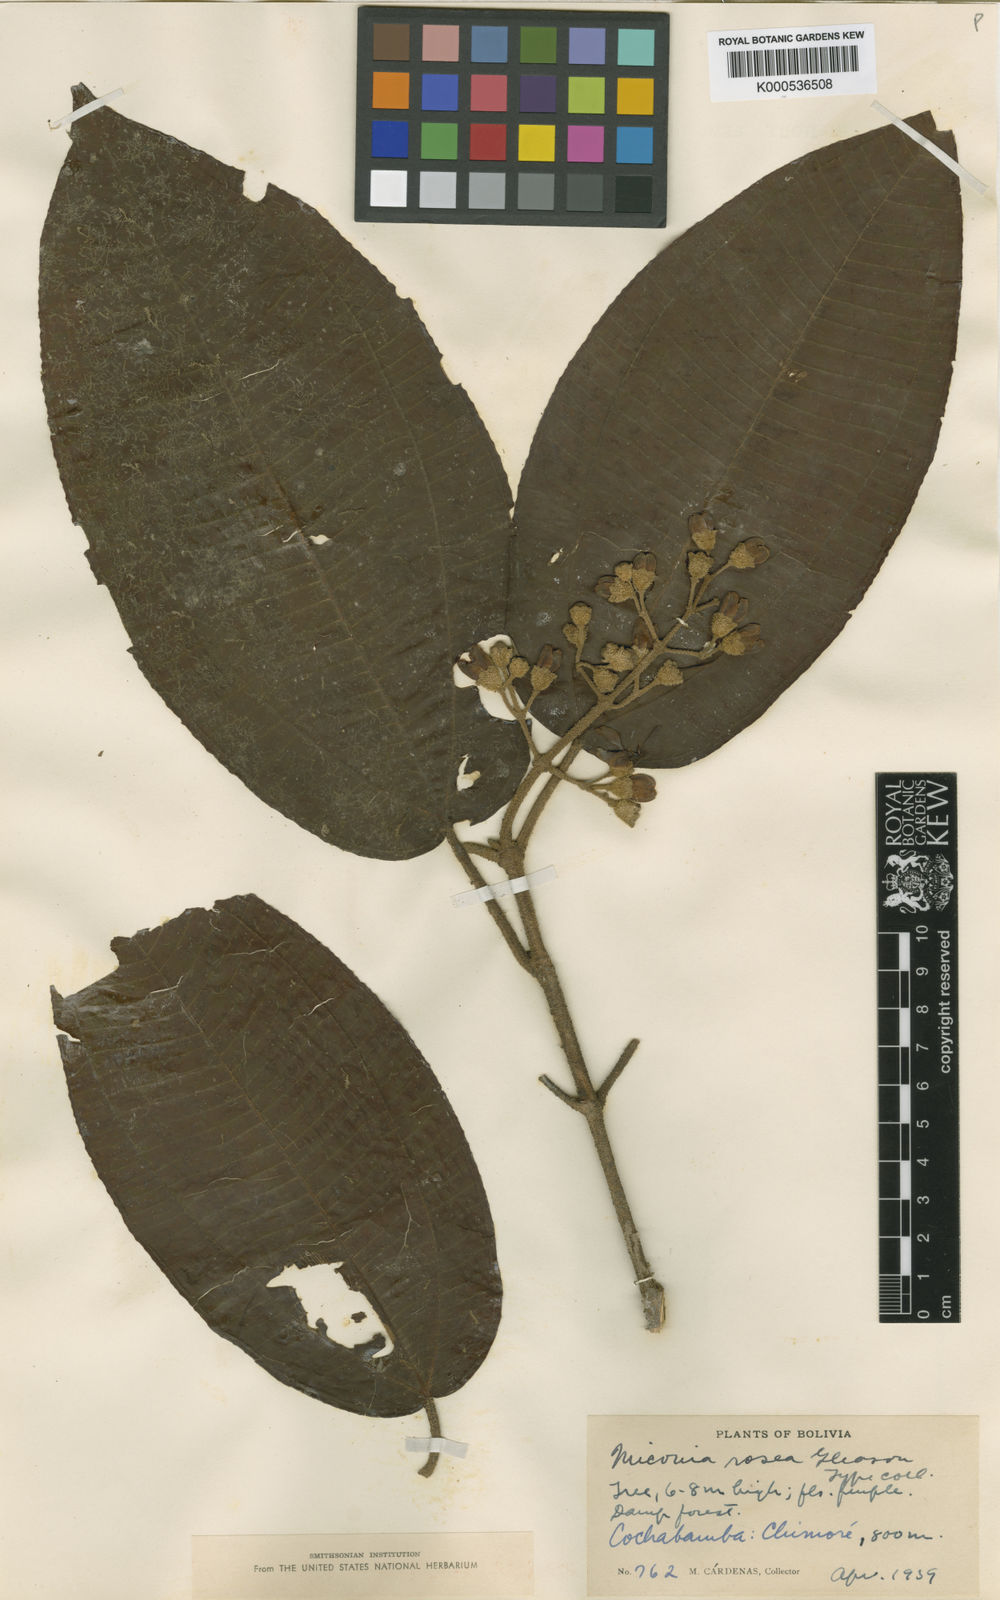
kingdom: Plantae
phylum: Tracheophyta
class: Magnoliopsida
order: Myrtales
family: Melastomataceae
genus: Miconia
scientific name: Miconia rosea
